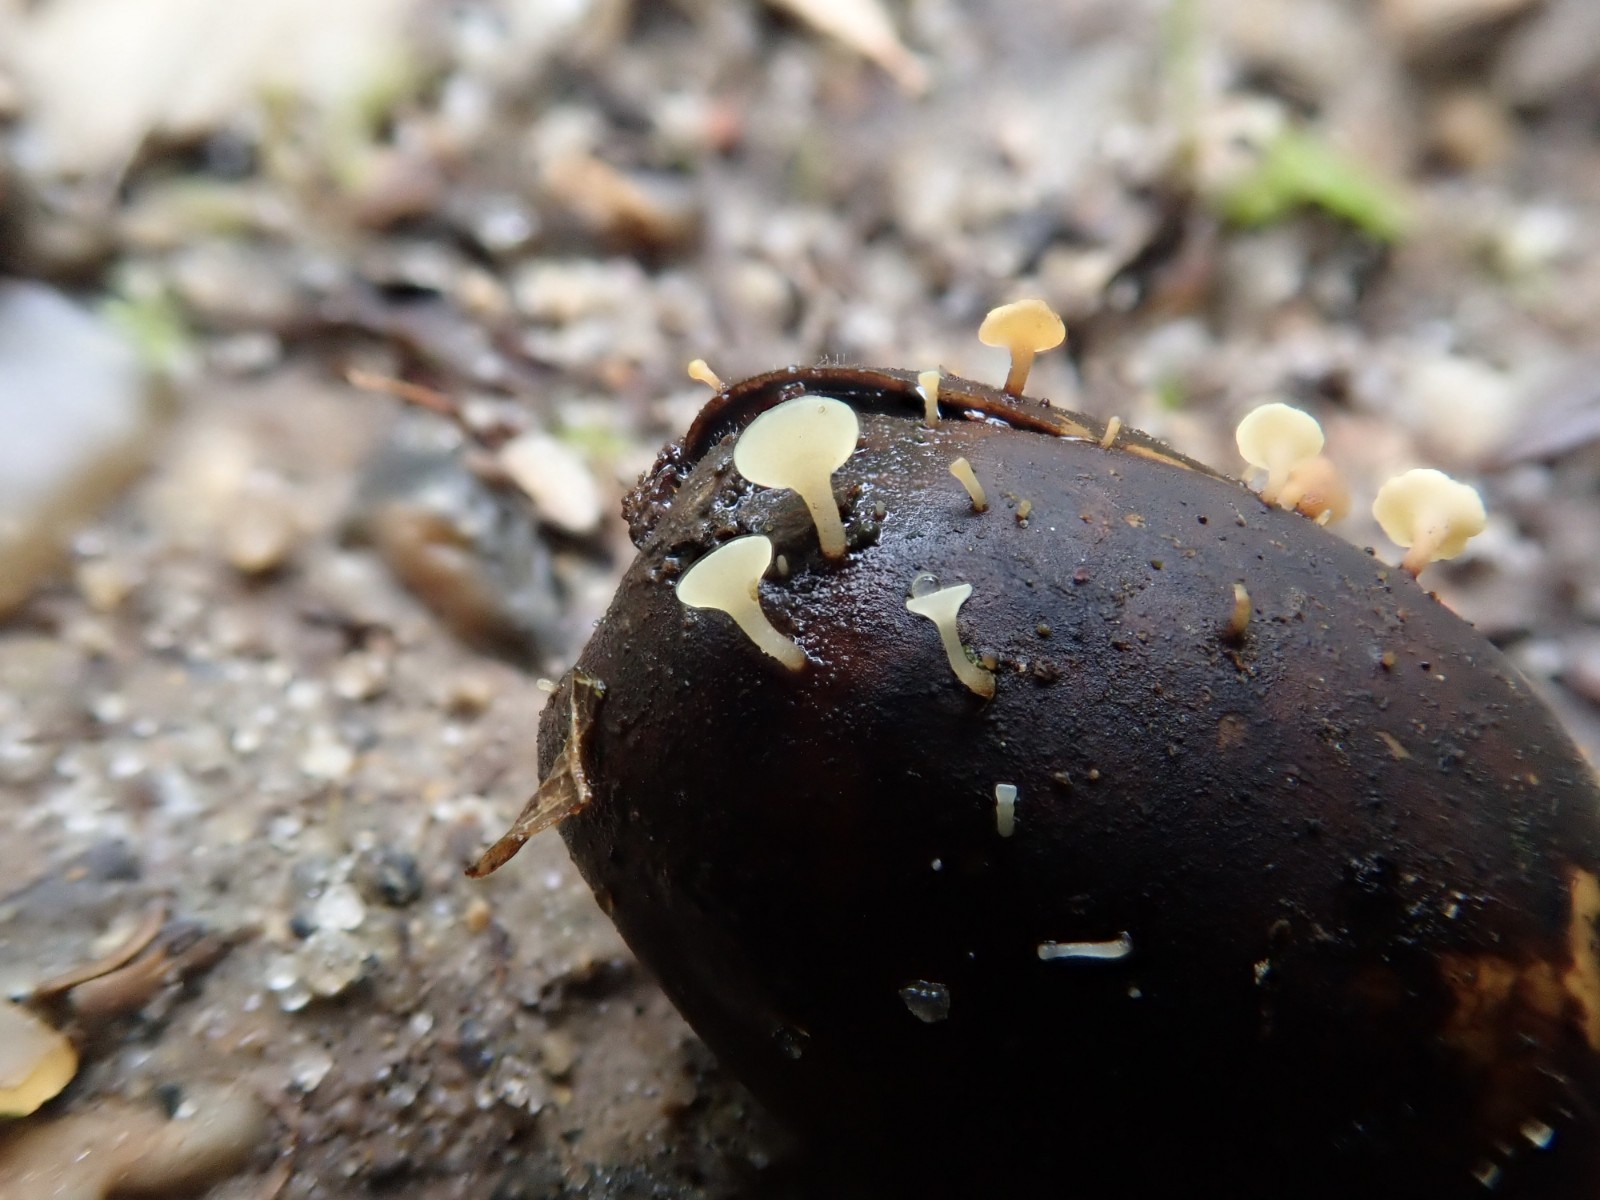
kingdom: Fungi
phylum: Ascomycota
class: Leotiomycetes
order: Helotiales
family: Helotiaceae
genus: Hymenoscyphus
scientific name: Hymenoscyphus fructigenus
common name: frugt-stilkskive
